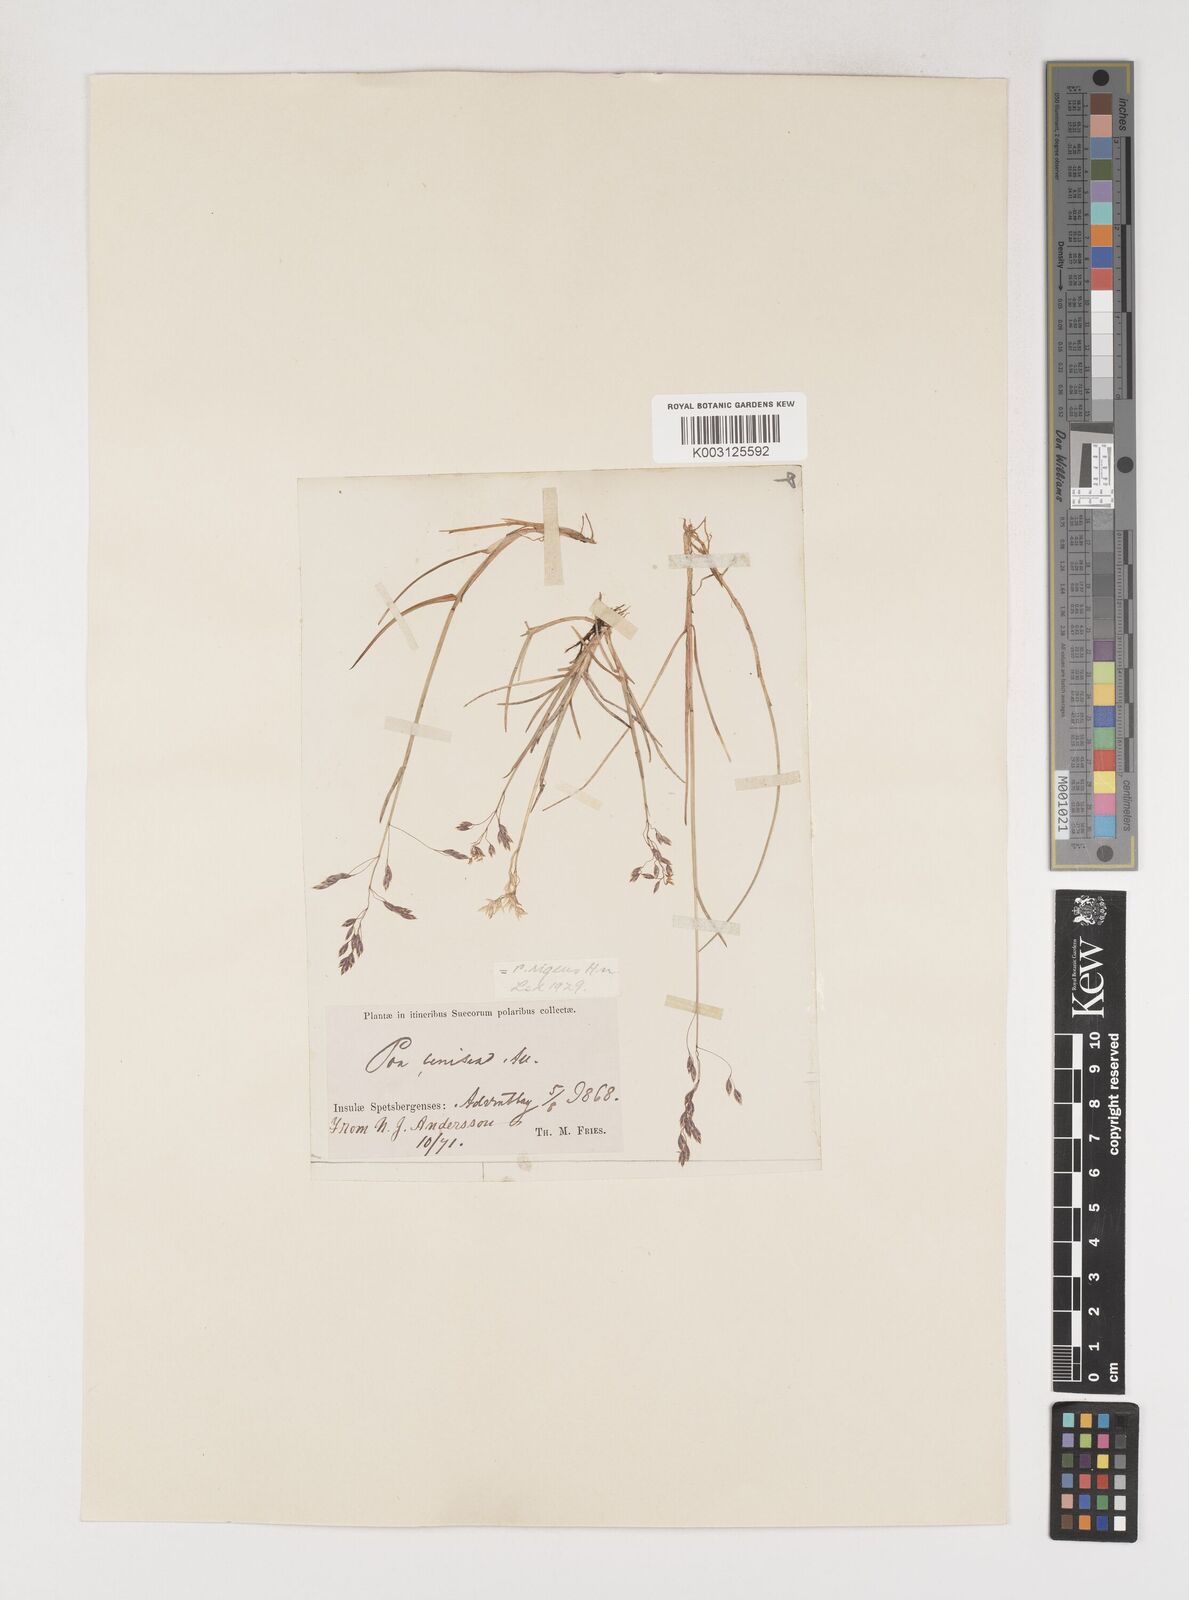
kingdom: Plantae
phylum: Tracheophyta
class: Liliopsida
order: Poales
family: Poaceae
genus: Poa
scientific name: Poa arctica
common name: Arctic bluegrass
